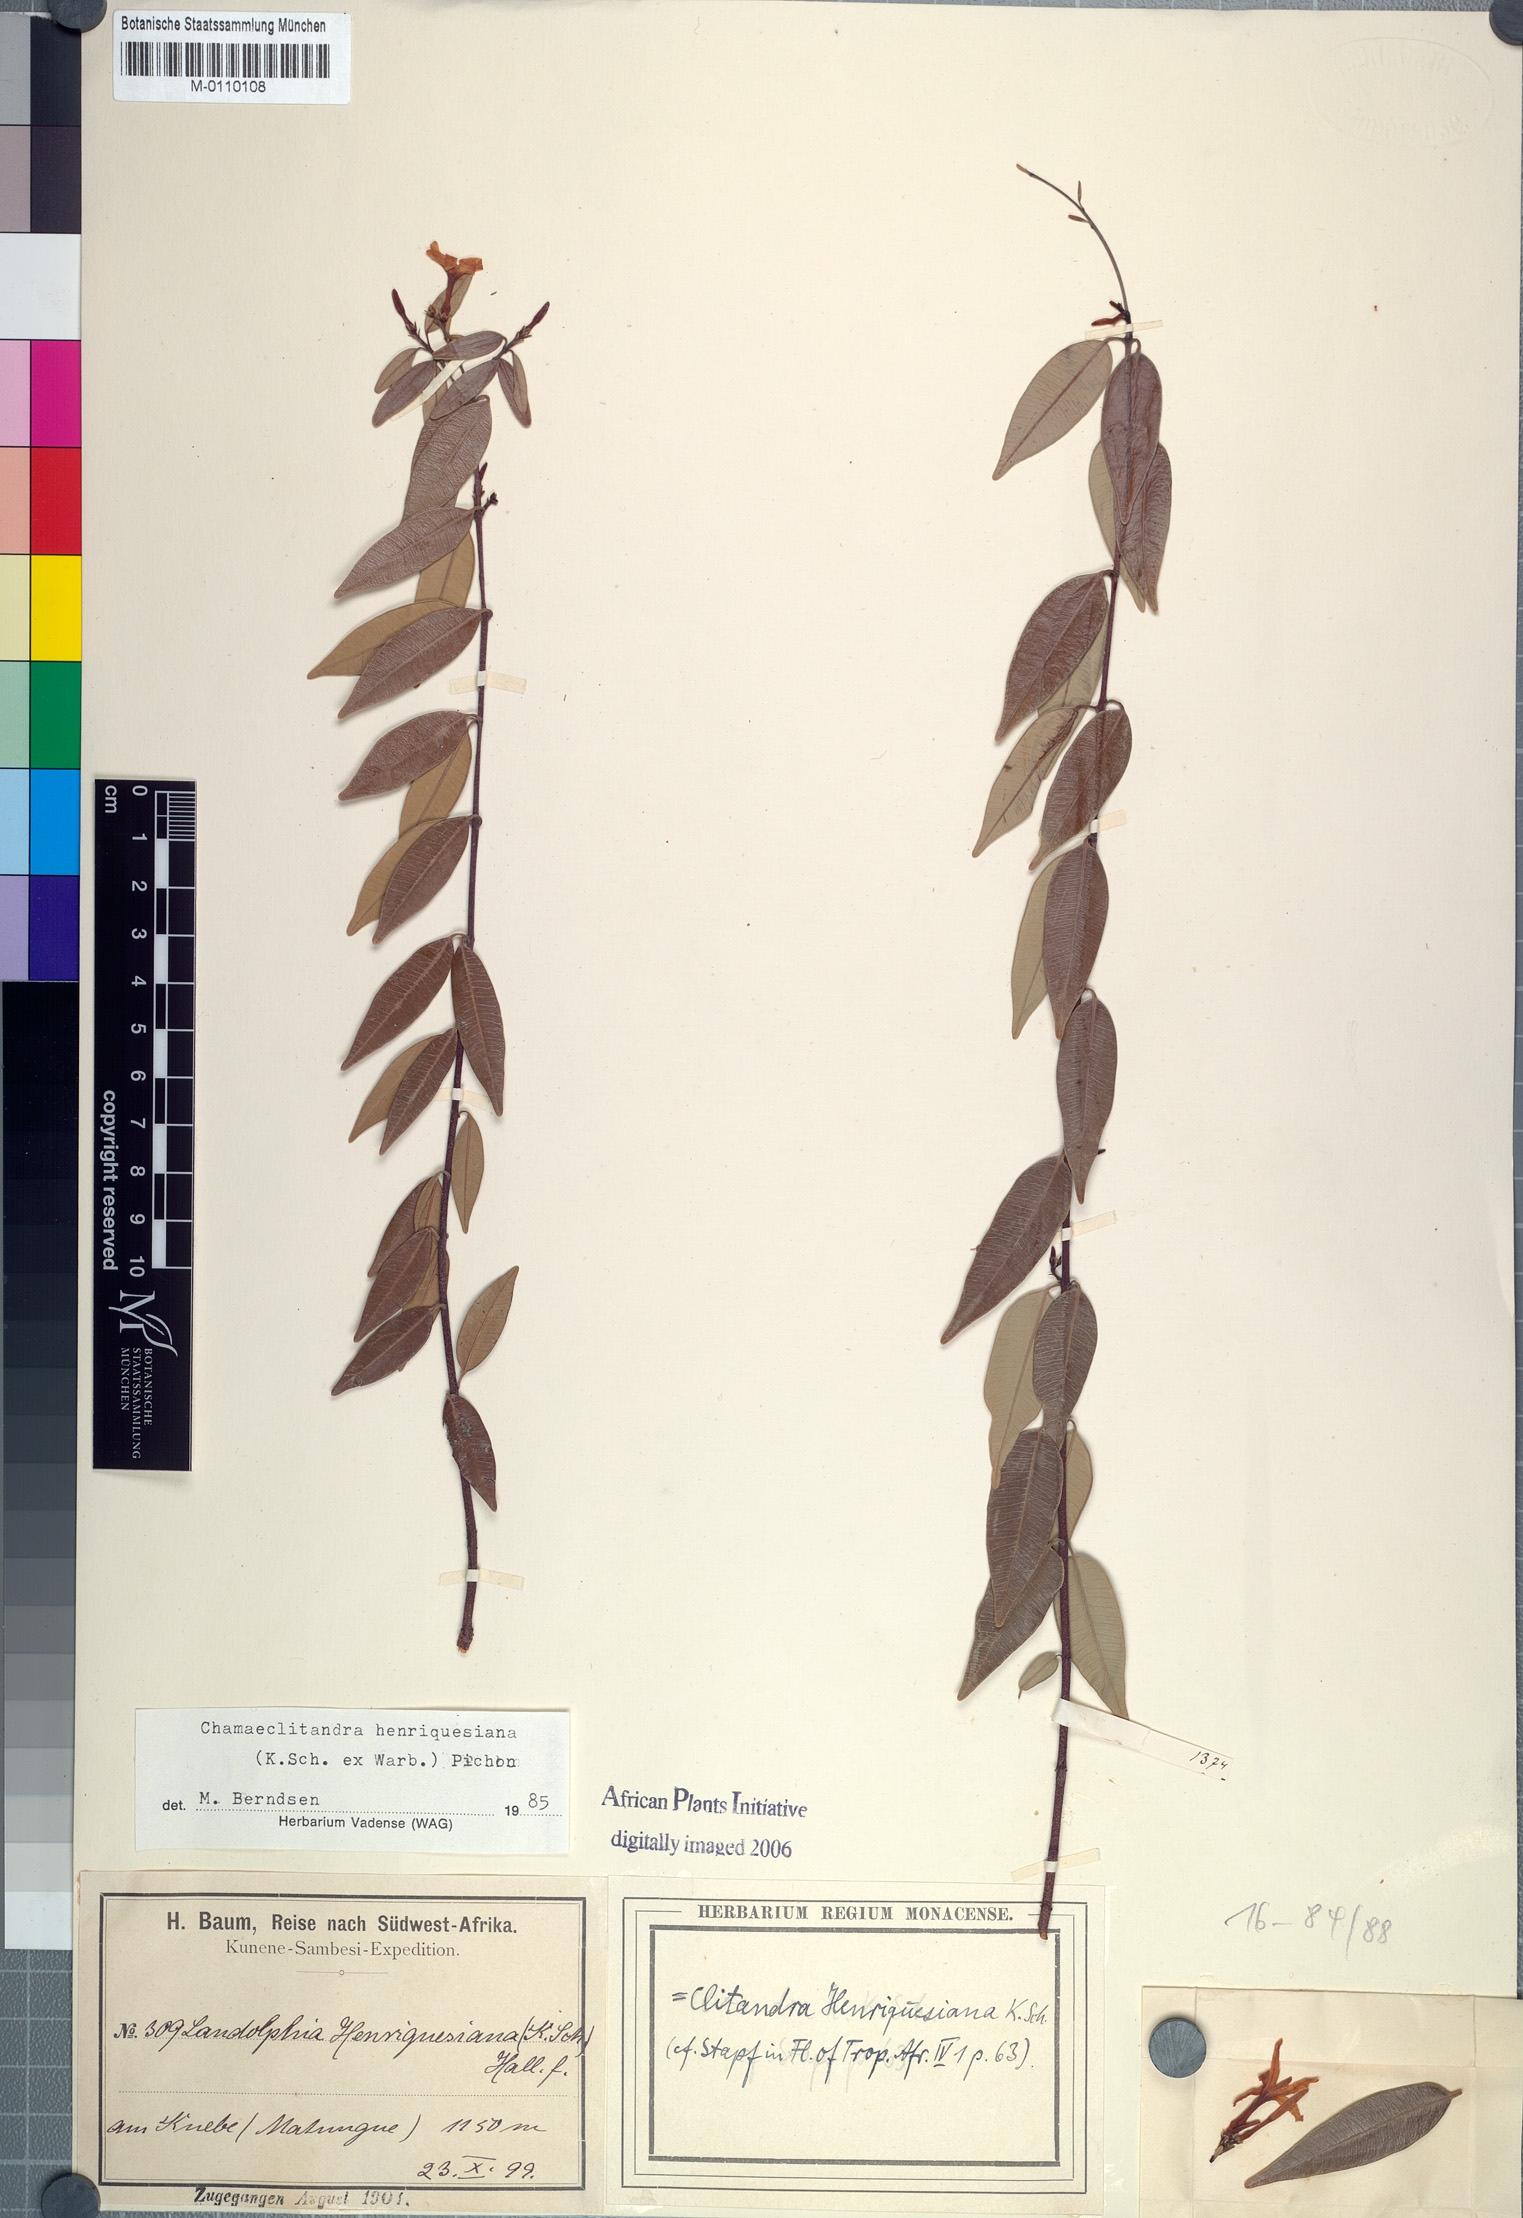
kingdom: Plantae
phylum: Tracheophyta
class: Magnoliopsida
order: Gentianales
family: Apocynaceae
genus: Chamaeclitandra
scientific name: Chamaeclitandra henriquesiana
